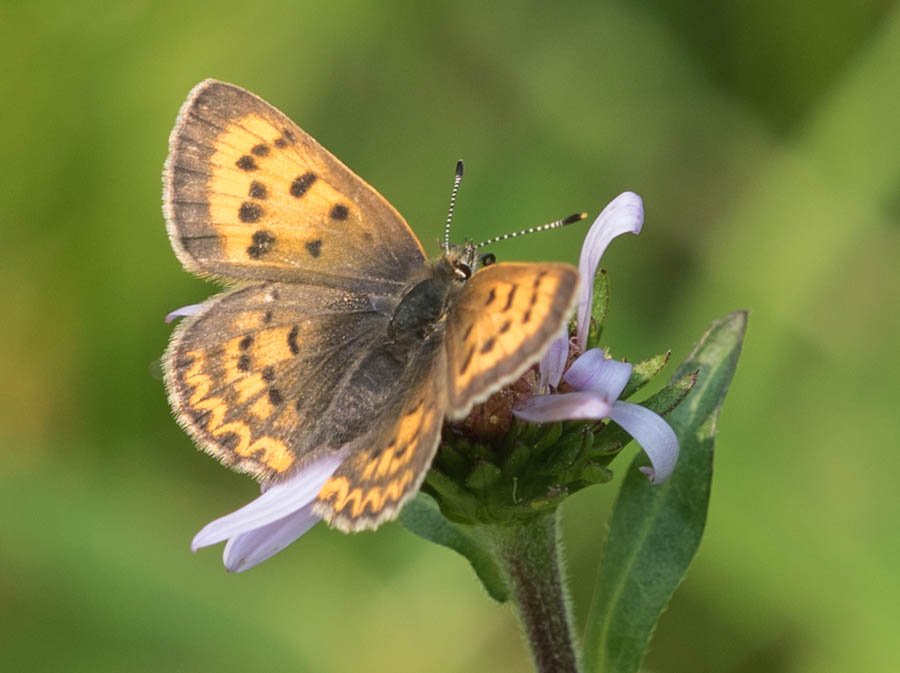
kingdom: Animalia
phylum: Arthropoda
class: Insecta
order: Lepidoptera
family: Sesiidae
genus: Sesia
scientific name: Sesia Lycaena helloides
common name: Purplish Copper
